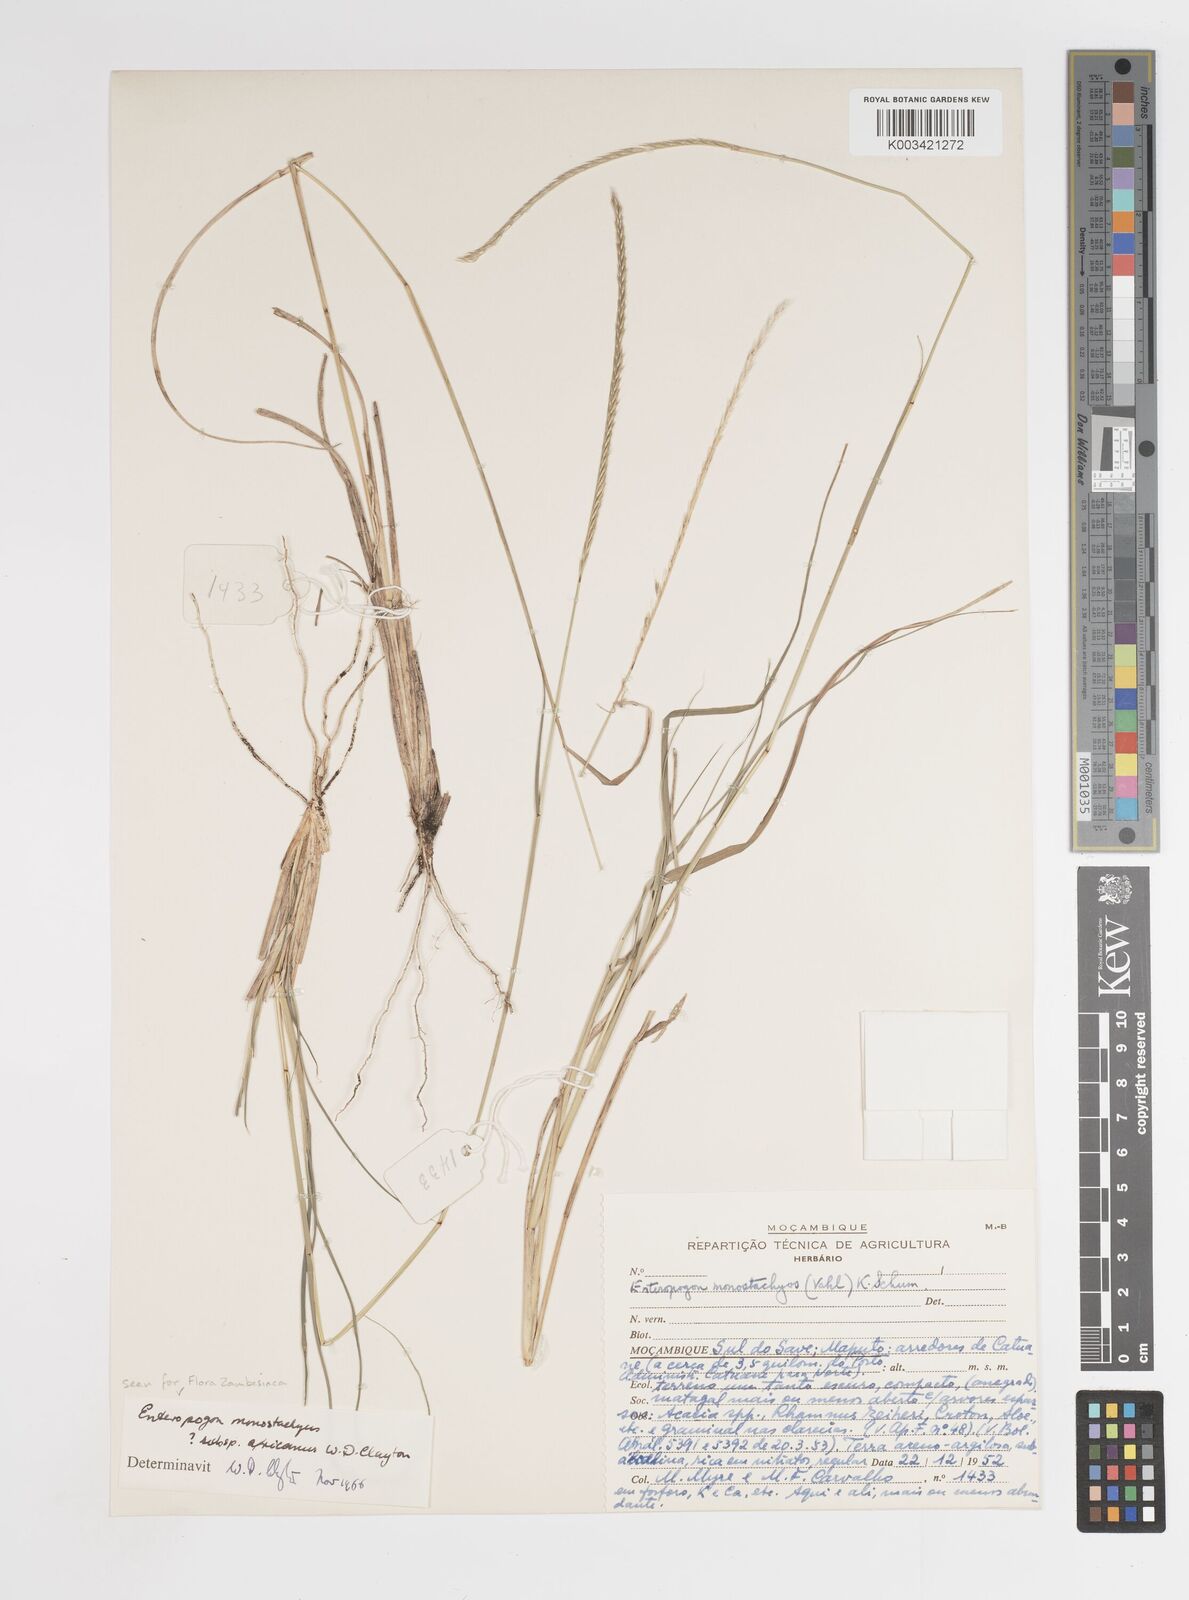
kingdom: Plantae
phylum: Tracheophyta
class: Liliopsida
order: Poales
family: Poaceae
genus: Enteropogon
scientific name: Enteropogon monostachyos
